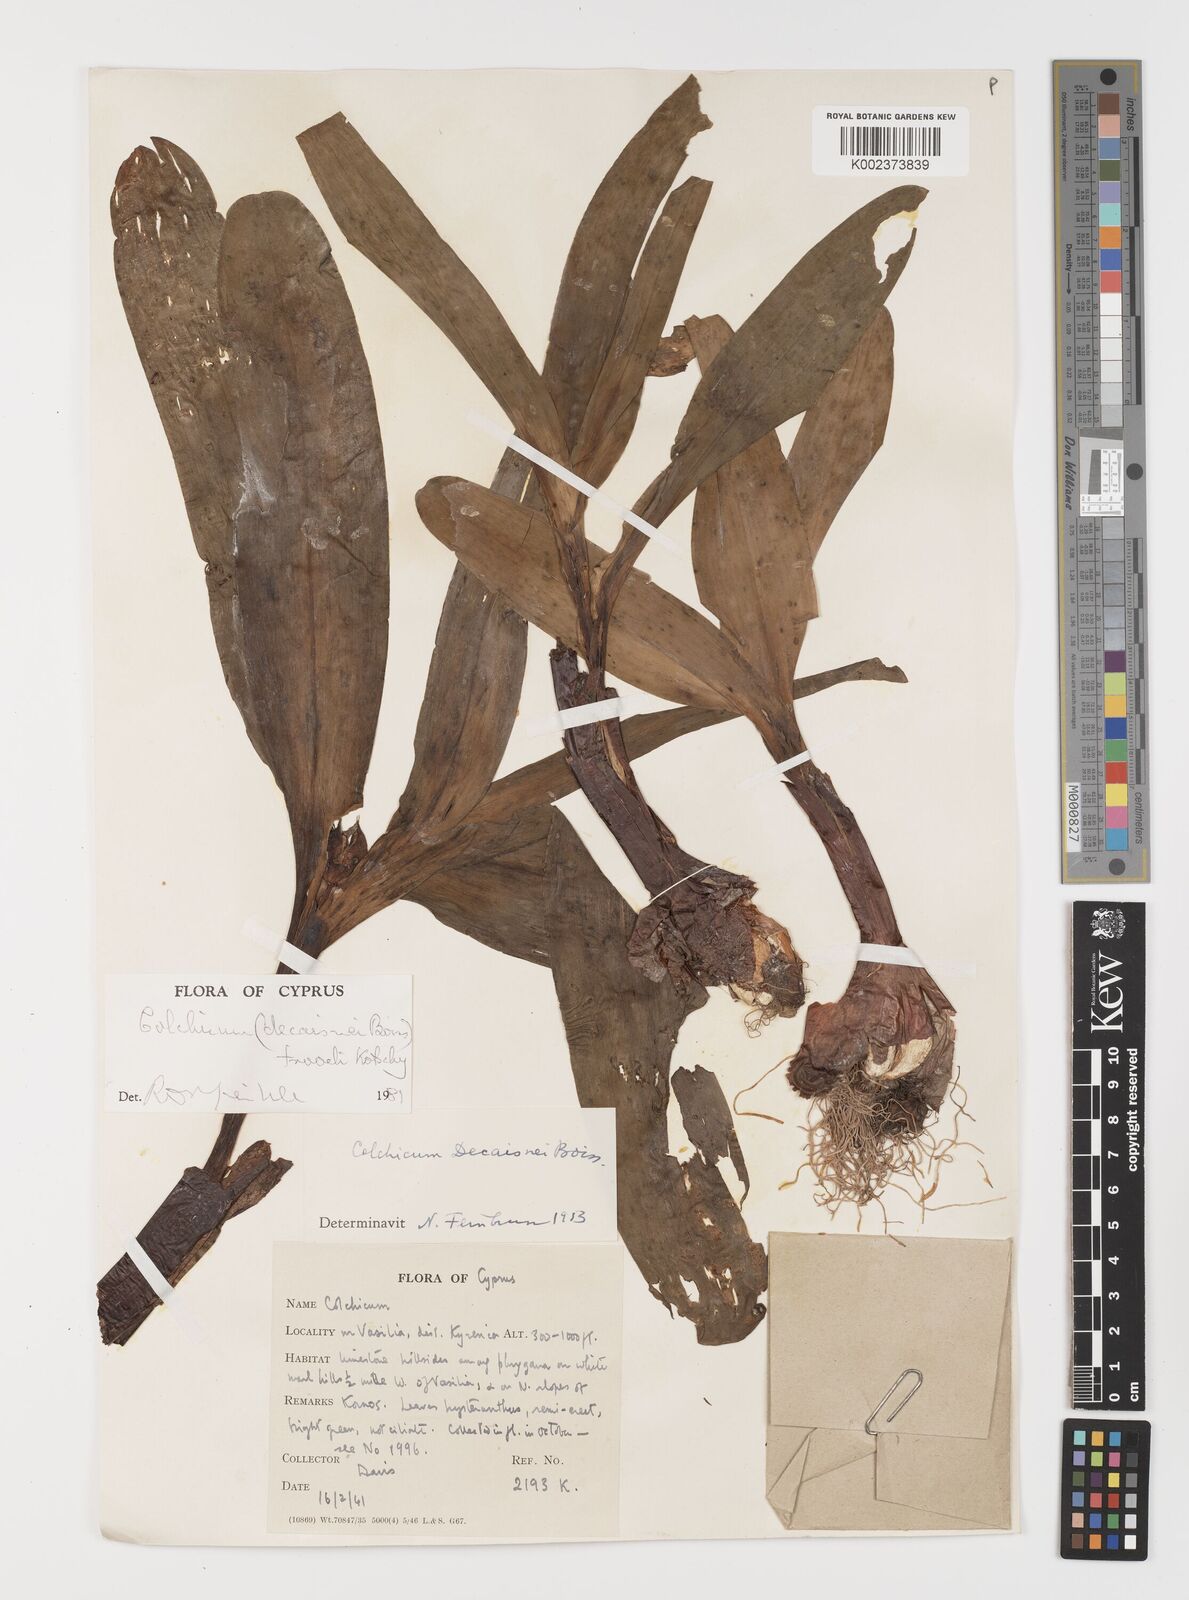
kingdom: Plantae
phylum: Tracheophyta
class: Liliopsida
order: Liliales
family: Colchicaceae
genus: Colchicum
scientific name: Colchicum troodi
